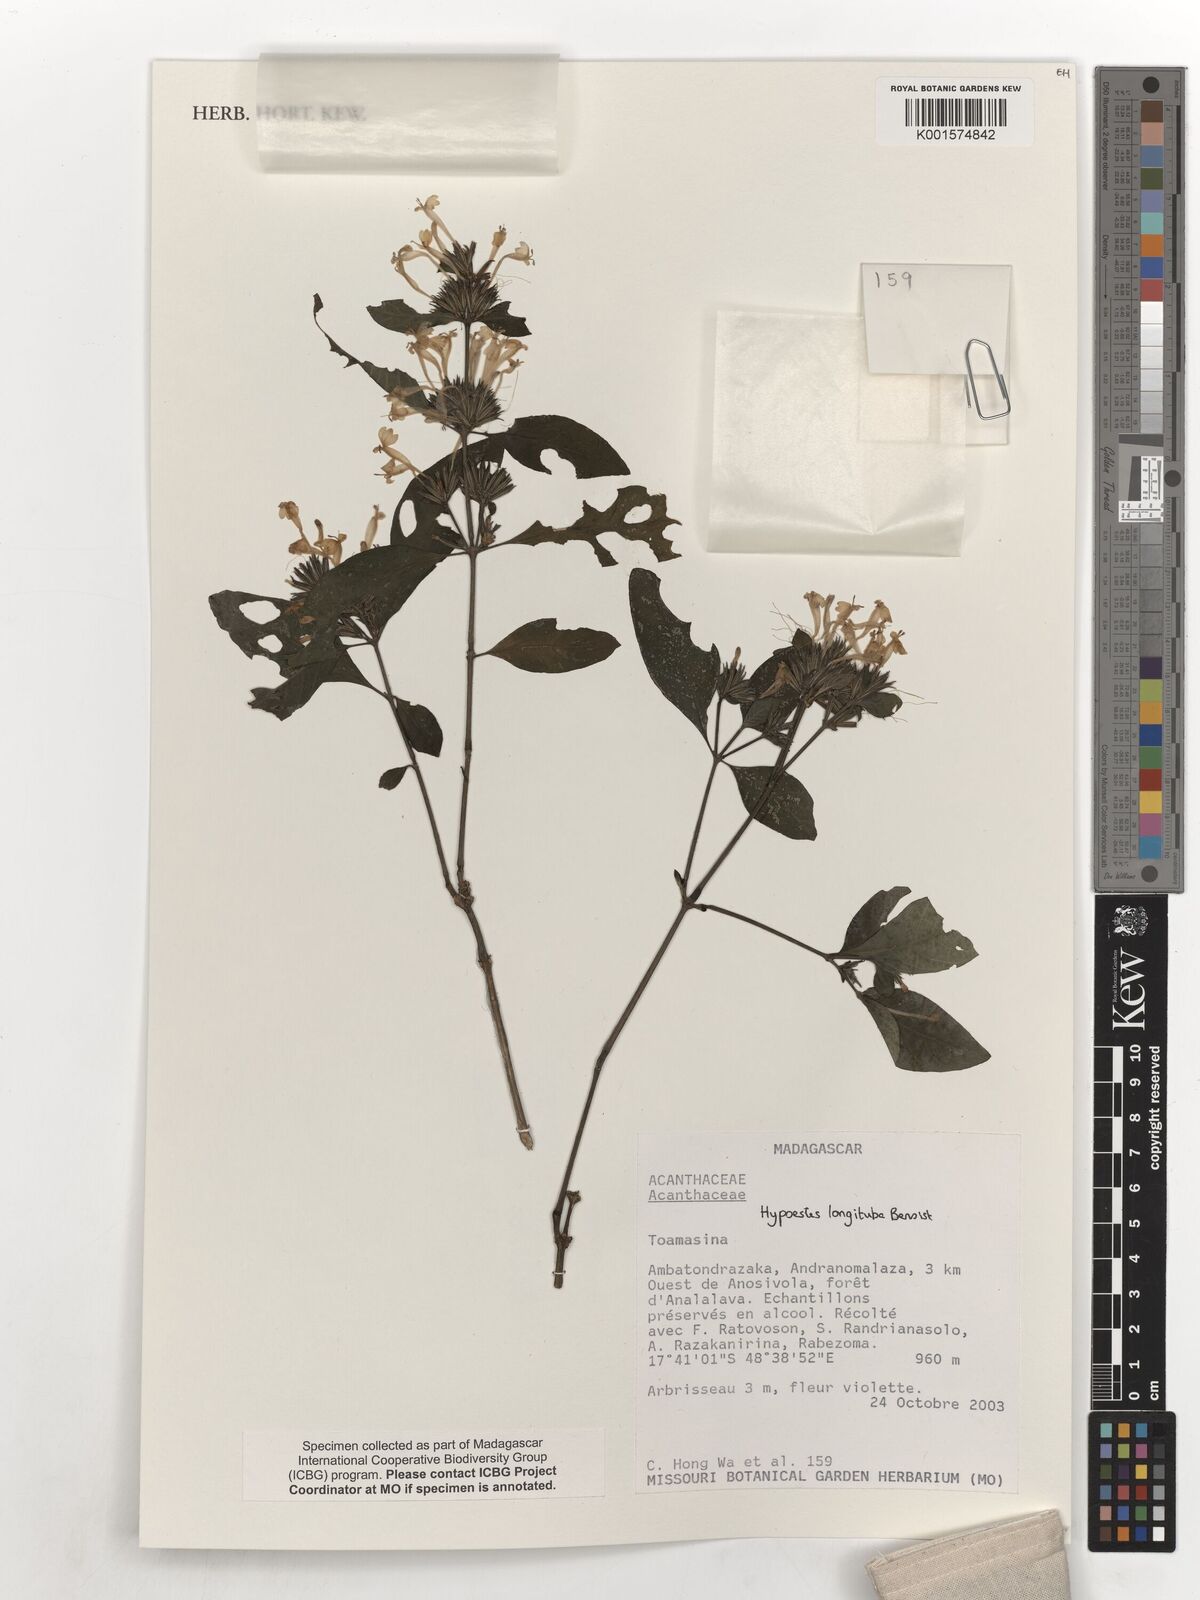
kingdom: Plantae
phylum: Tracheophyta
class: Magnoliopsida
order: Lamiales
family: Acanthaceae
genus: Hypoestes
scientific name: Hypoestes longituba
